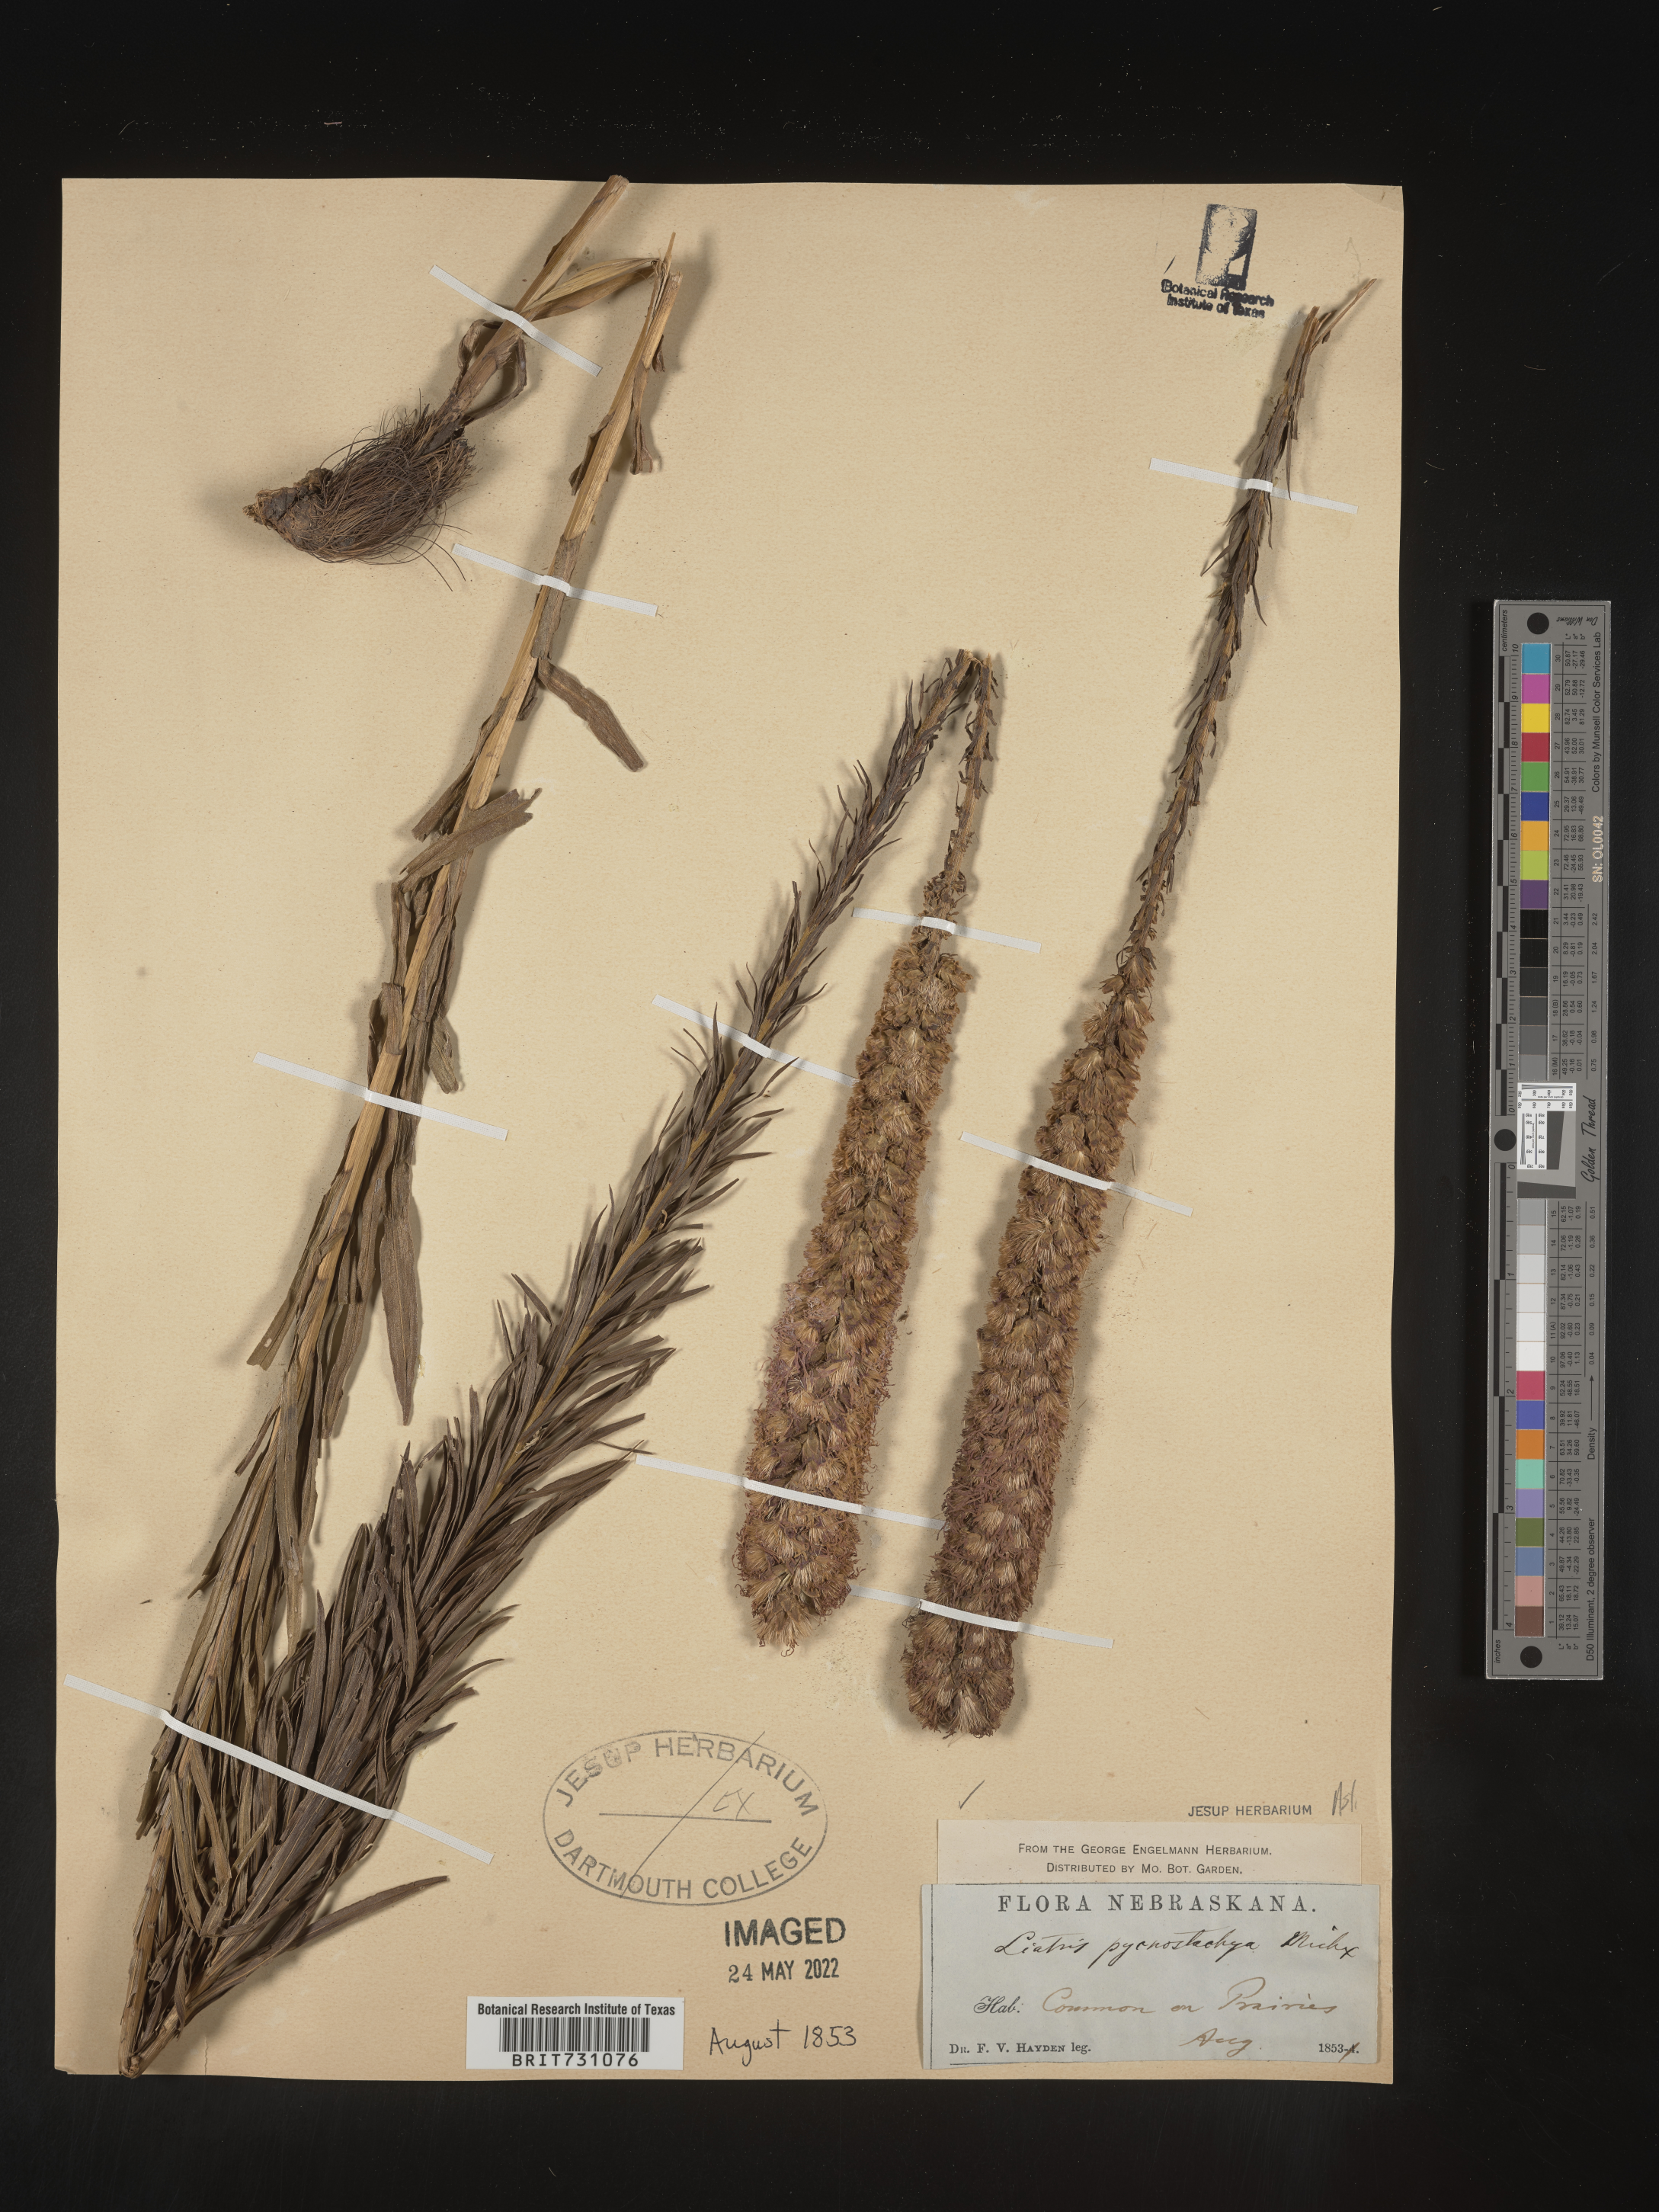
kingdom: Plantae
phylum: Tracheophyta
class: Magnoliopsida
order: Asterales
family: Asteraceae
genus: Liatris
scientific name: Liatris pycnostachya
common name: Cattail gayfeather
